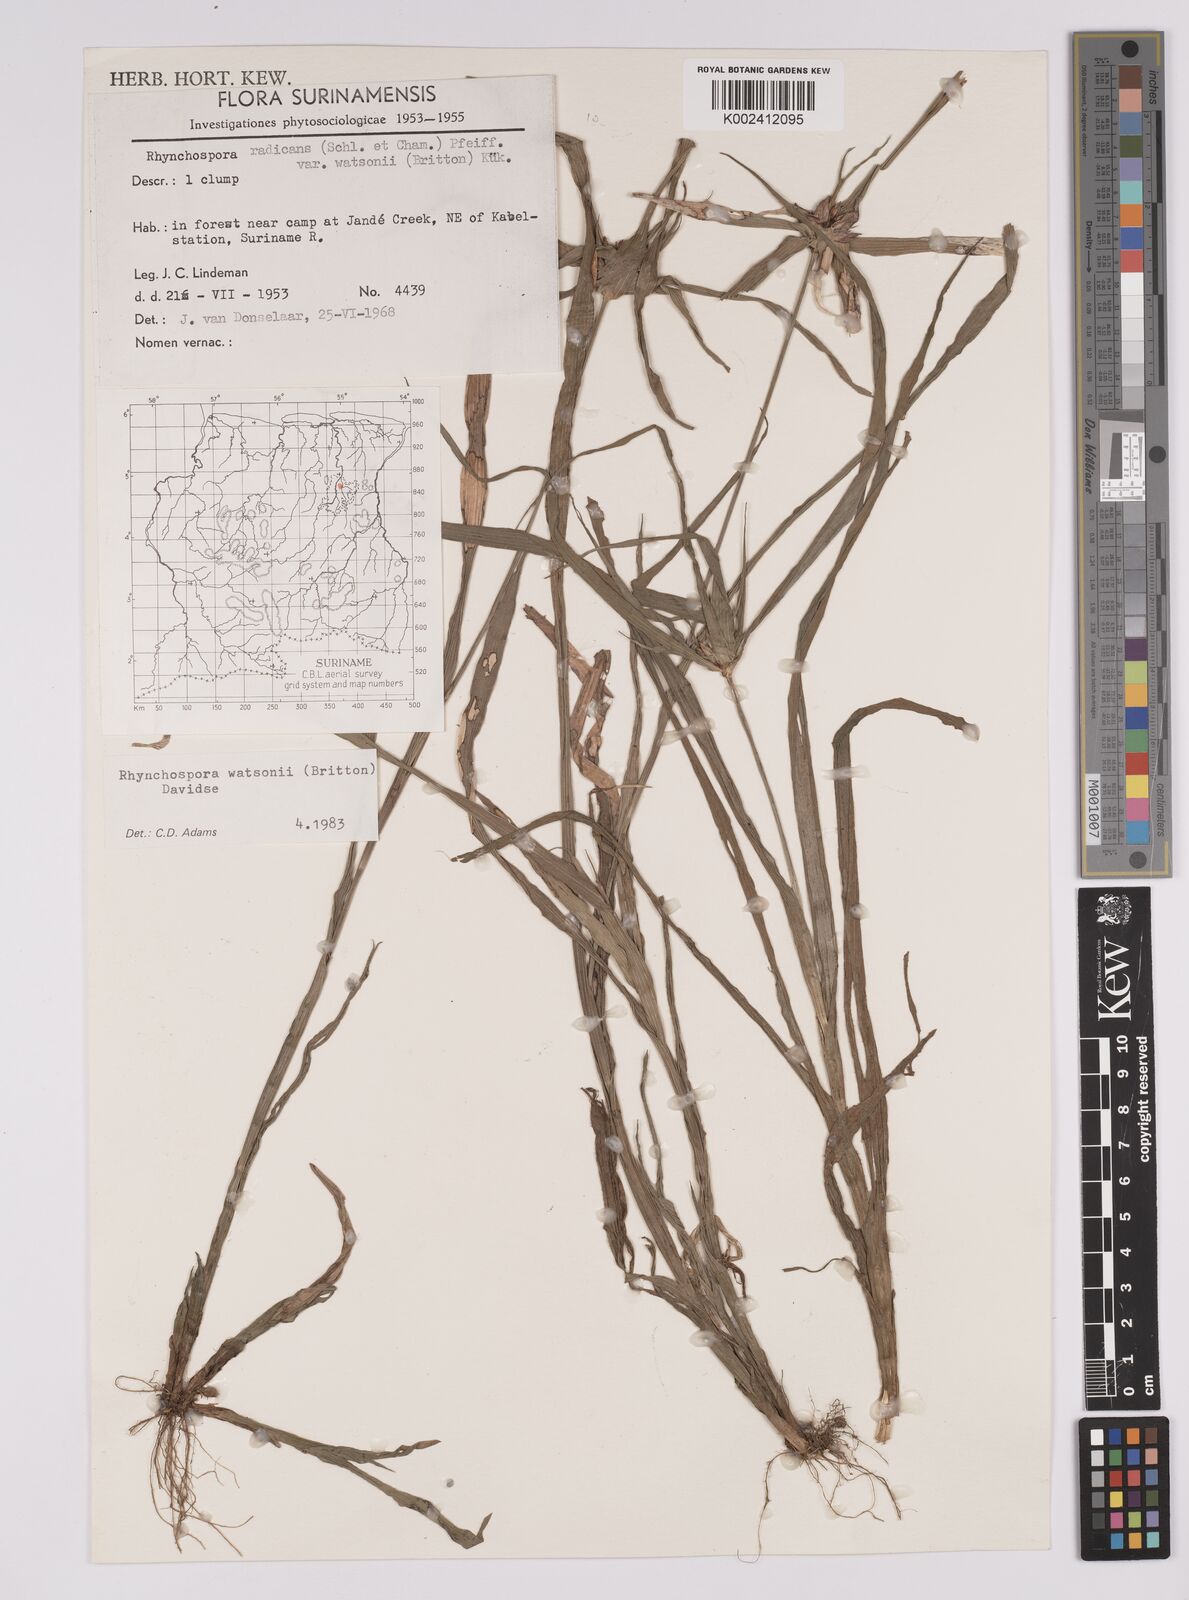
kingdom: Plantae
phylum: Tracheophyta
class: Liliopsida
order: Poales
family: Cyperaceae
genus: Rhynchospora
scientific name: Rhynchospora watsonii
